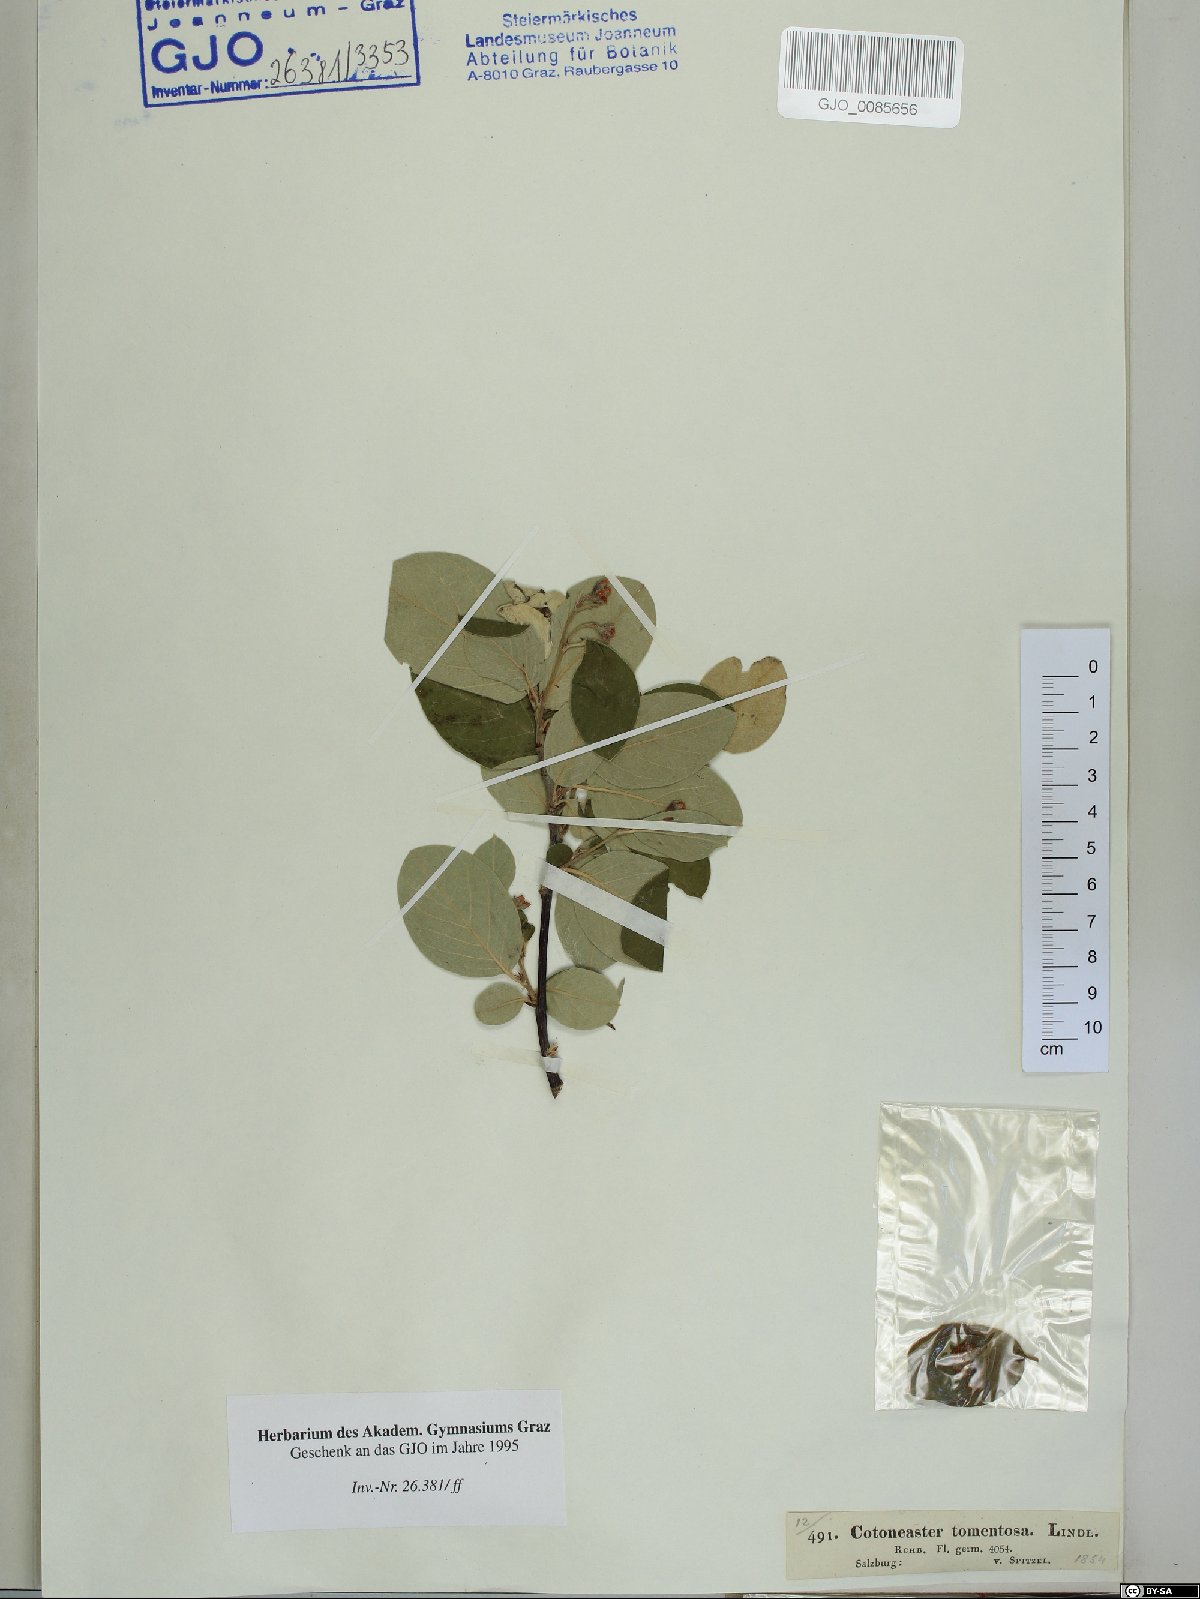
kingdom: Plantae
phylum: Tracheophyta
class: Magnoliopsida
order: Rosales
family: Rosaceae
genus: Cotoneaster
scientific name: Cotoneaster tomentosus
